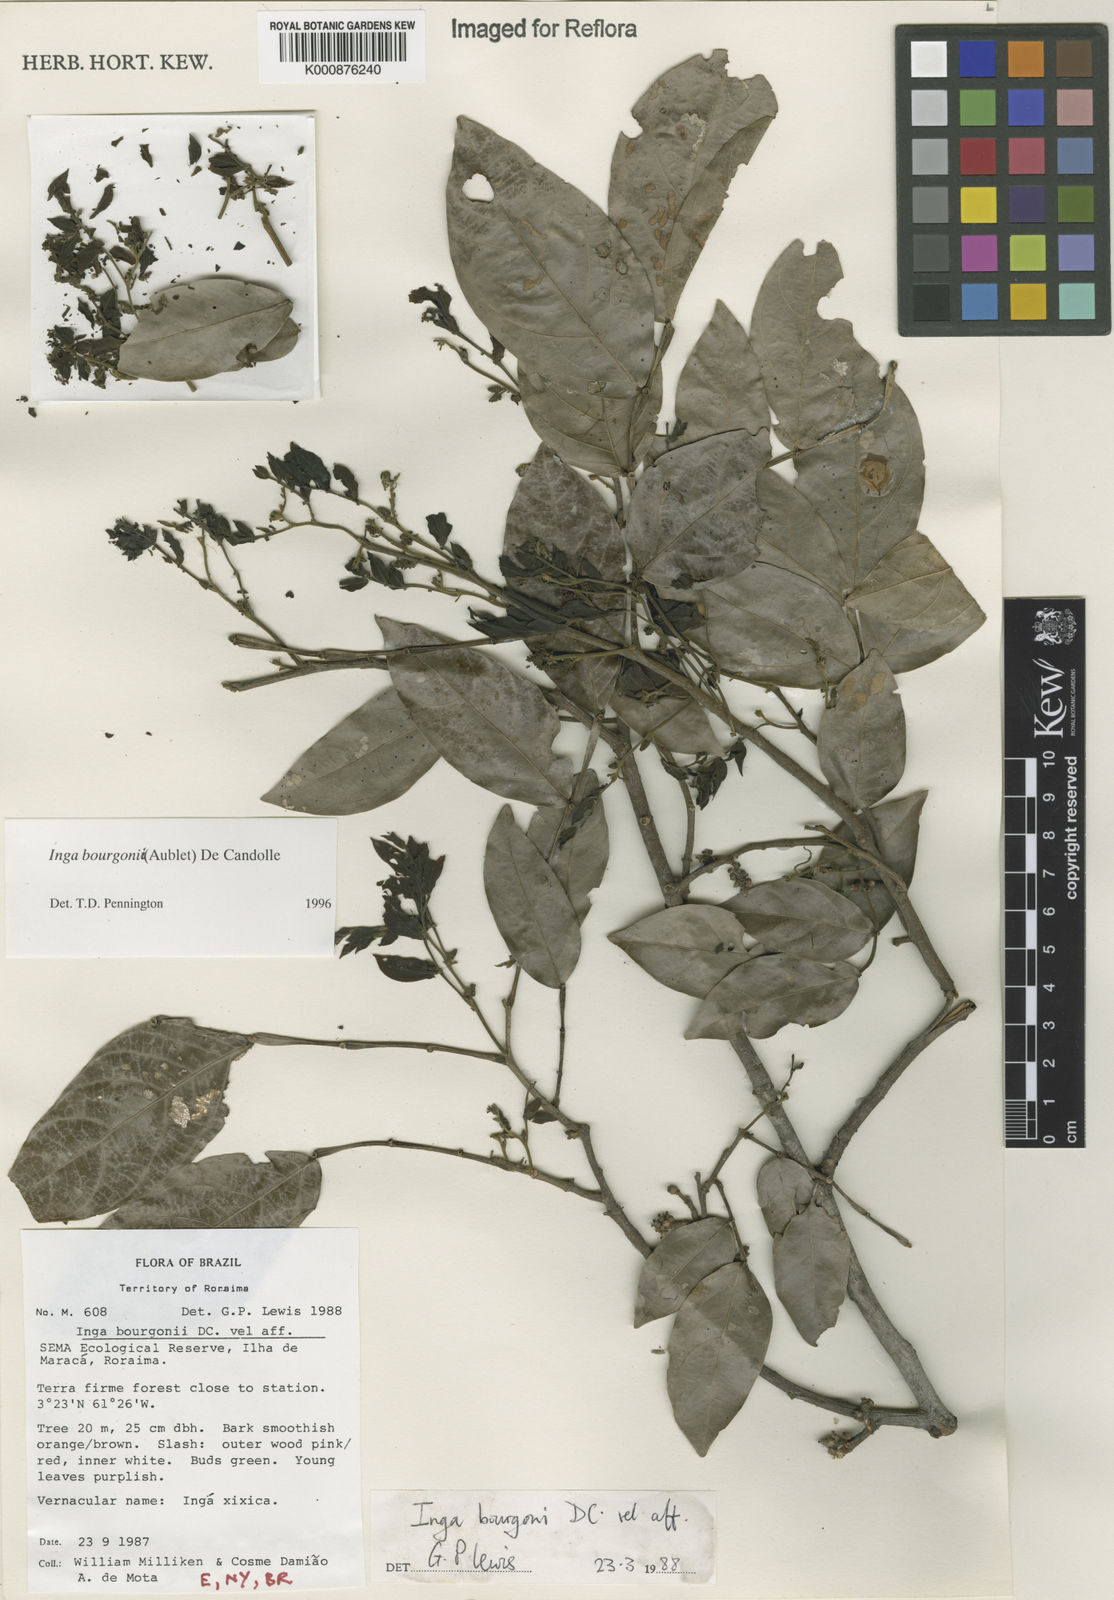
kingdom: Plantae
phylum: Tracheophyta
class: Magnoliopsida
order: Fabales
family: Fabaceae
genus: Inga
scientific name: Inga bourgoni
